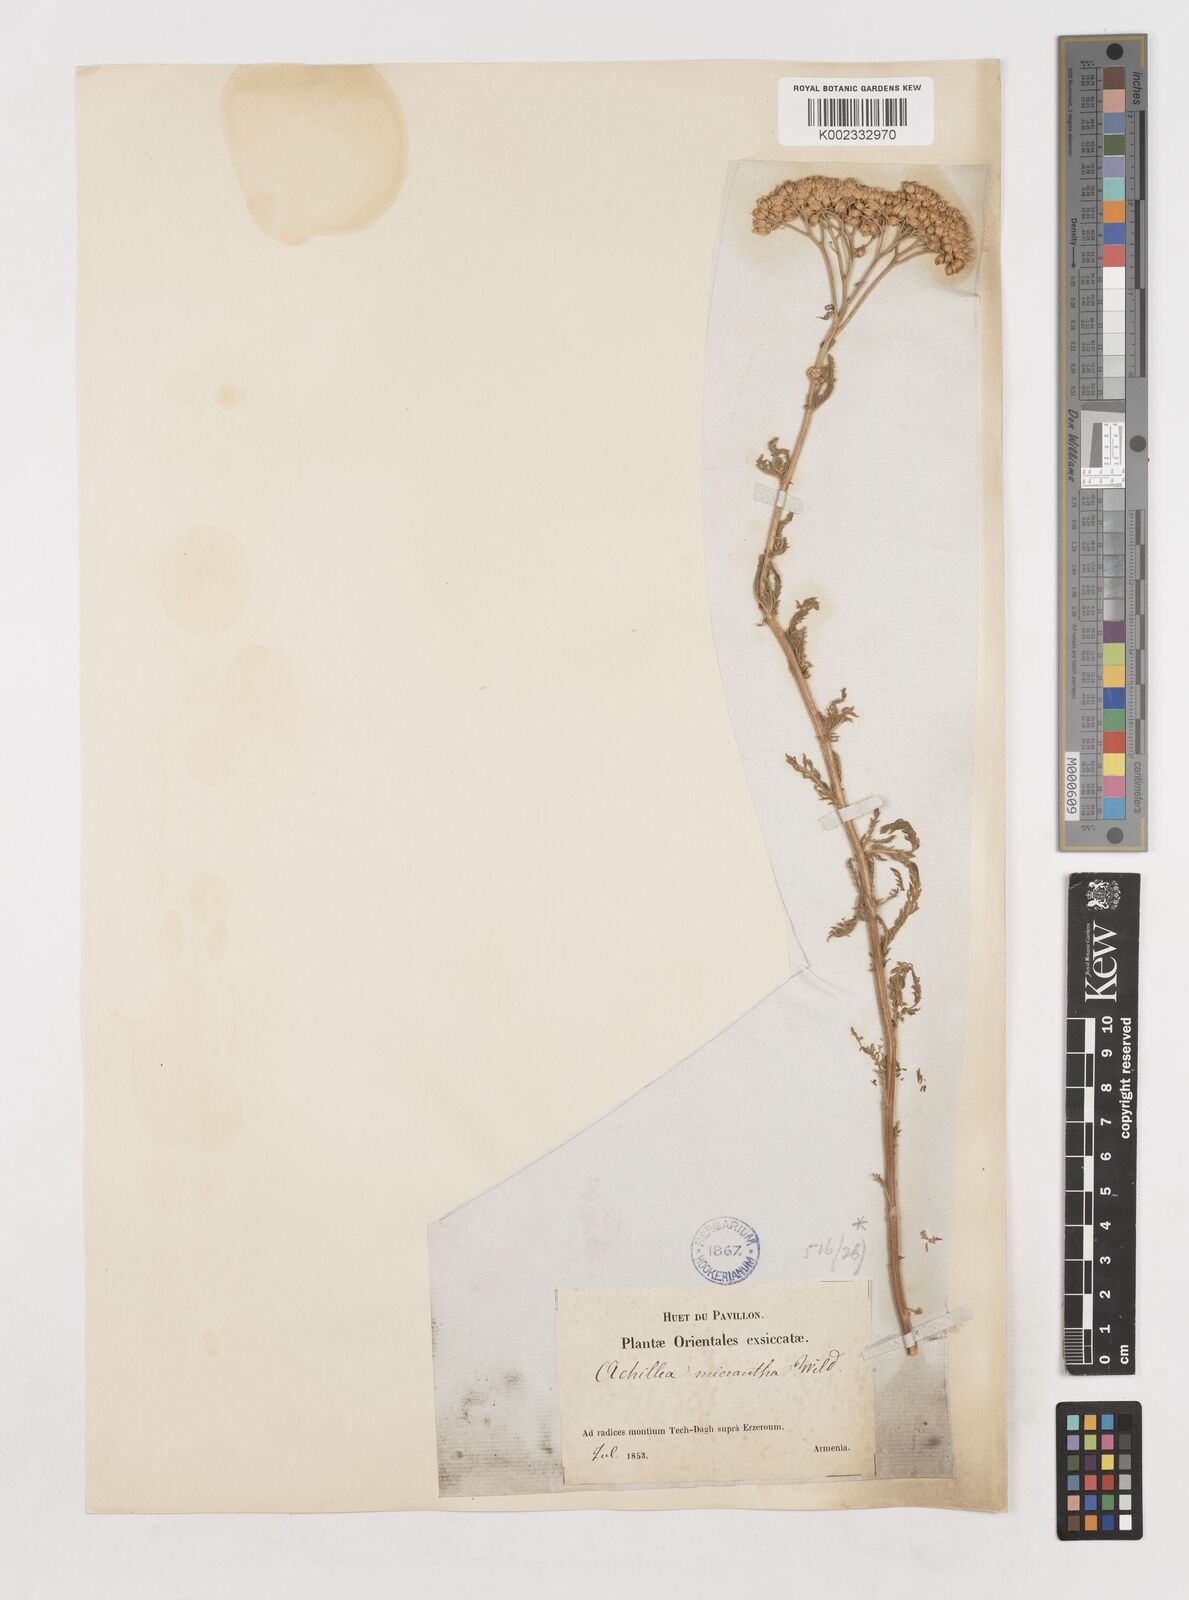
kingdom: Plantae
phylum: Tracheophyta
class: Magnoliopsida
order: Asterales
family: Asteraceae
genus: Achillea
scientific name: Achillea arabica
